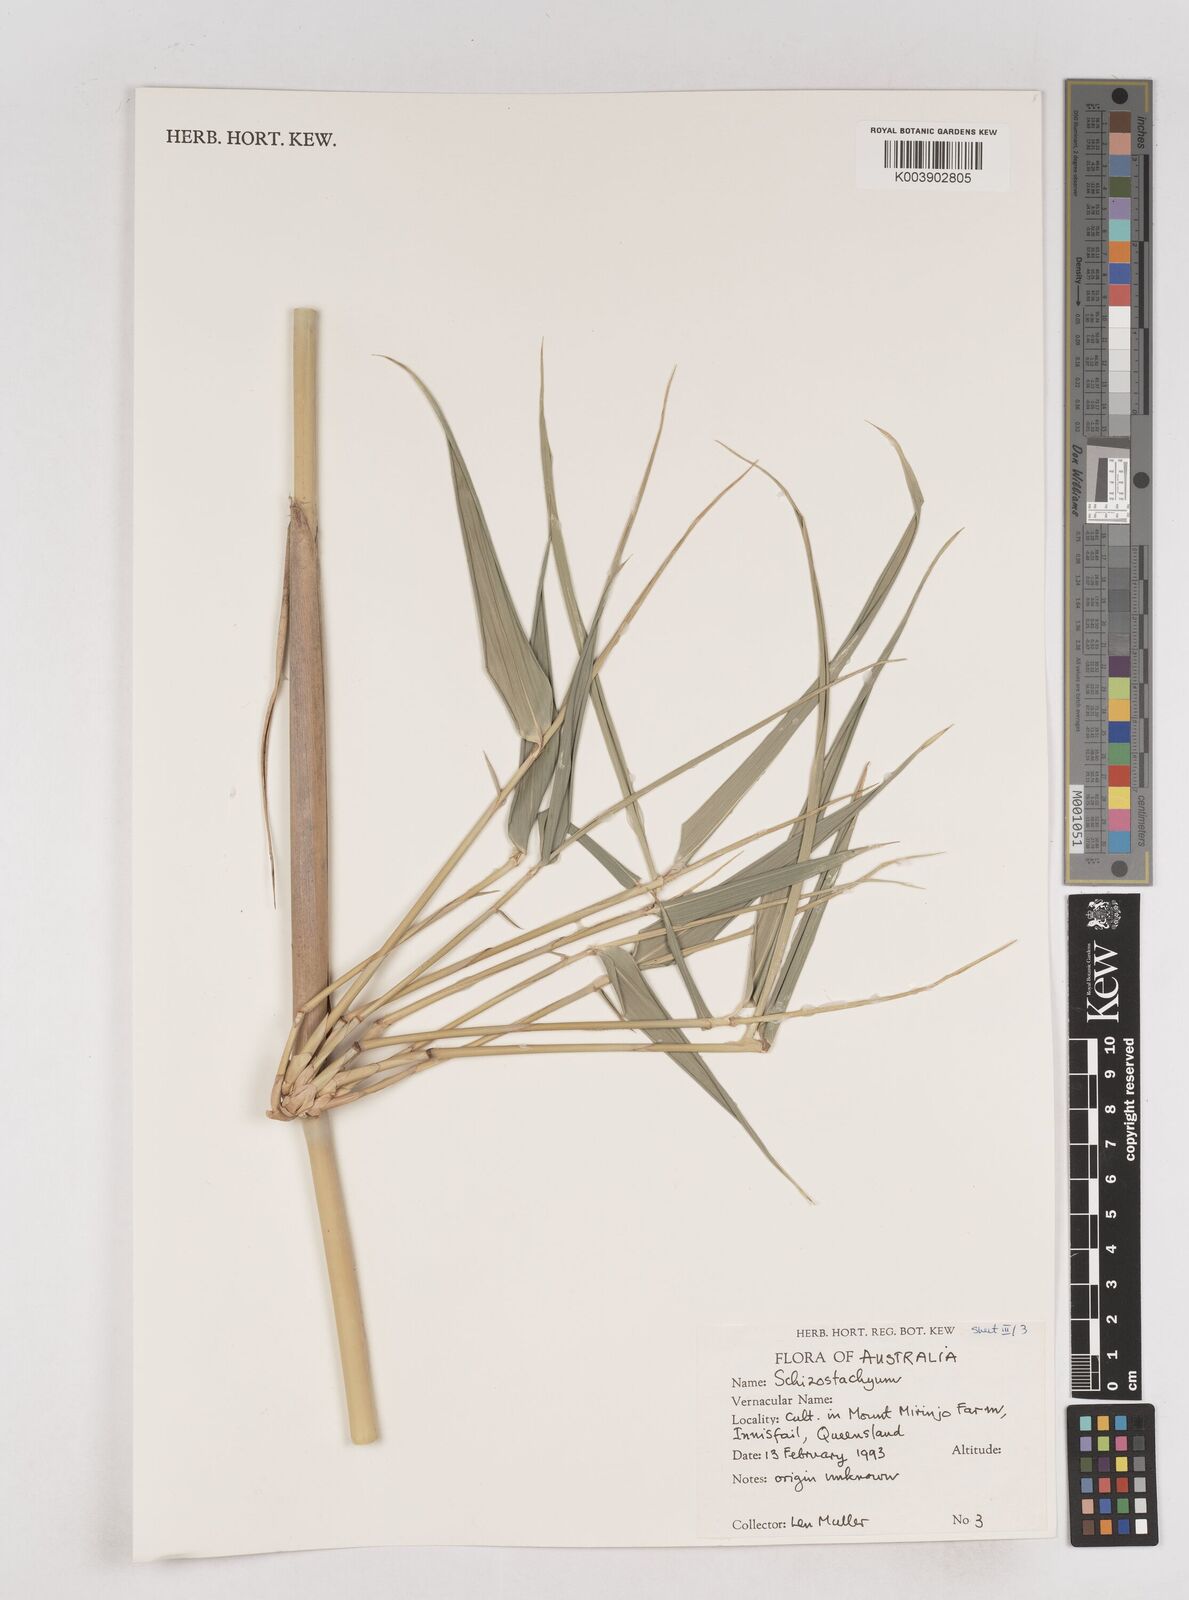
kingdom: Plantae
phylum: Tracheophyta
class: Liliopsida
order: Poales
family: Poaceae
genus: Schizostachyum
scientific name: Schizostachyum
